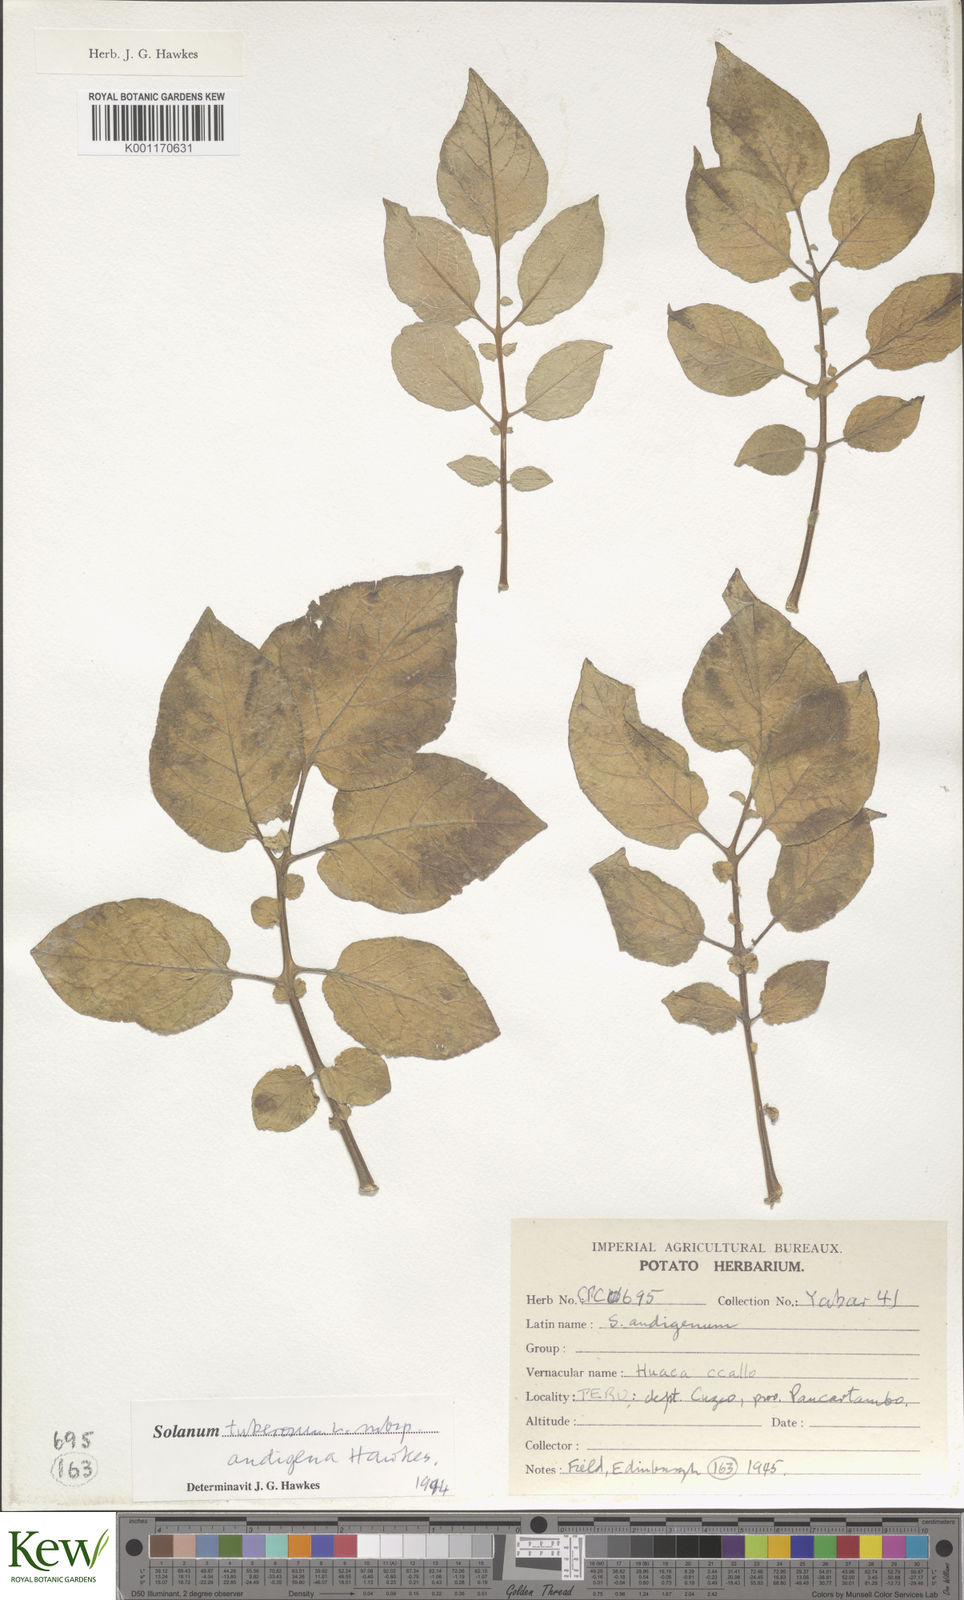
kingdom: Plantae
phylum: Tracheophyta
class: Magnoliopsida
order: Solanales
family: Solanaceae
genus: Solanum
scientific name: Solanum tuberosum
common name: Potato
